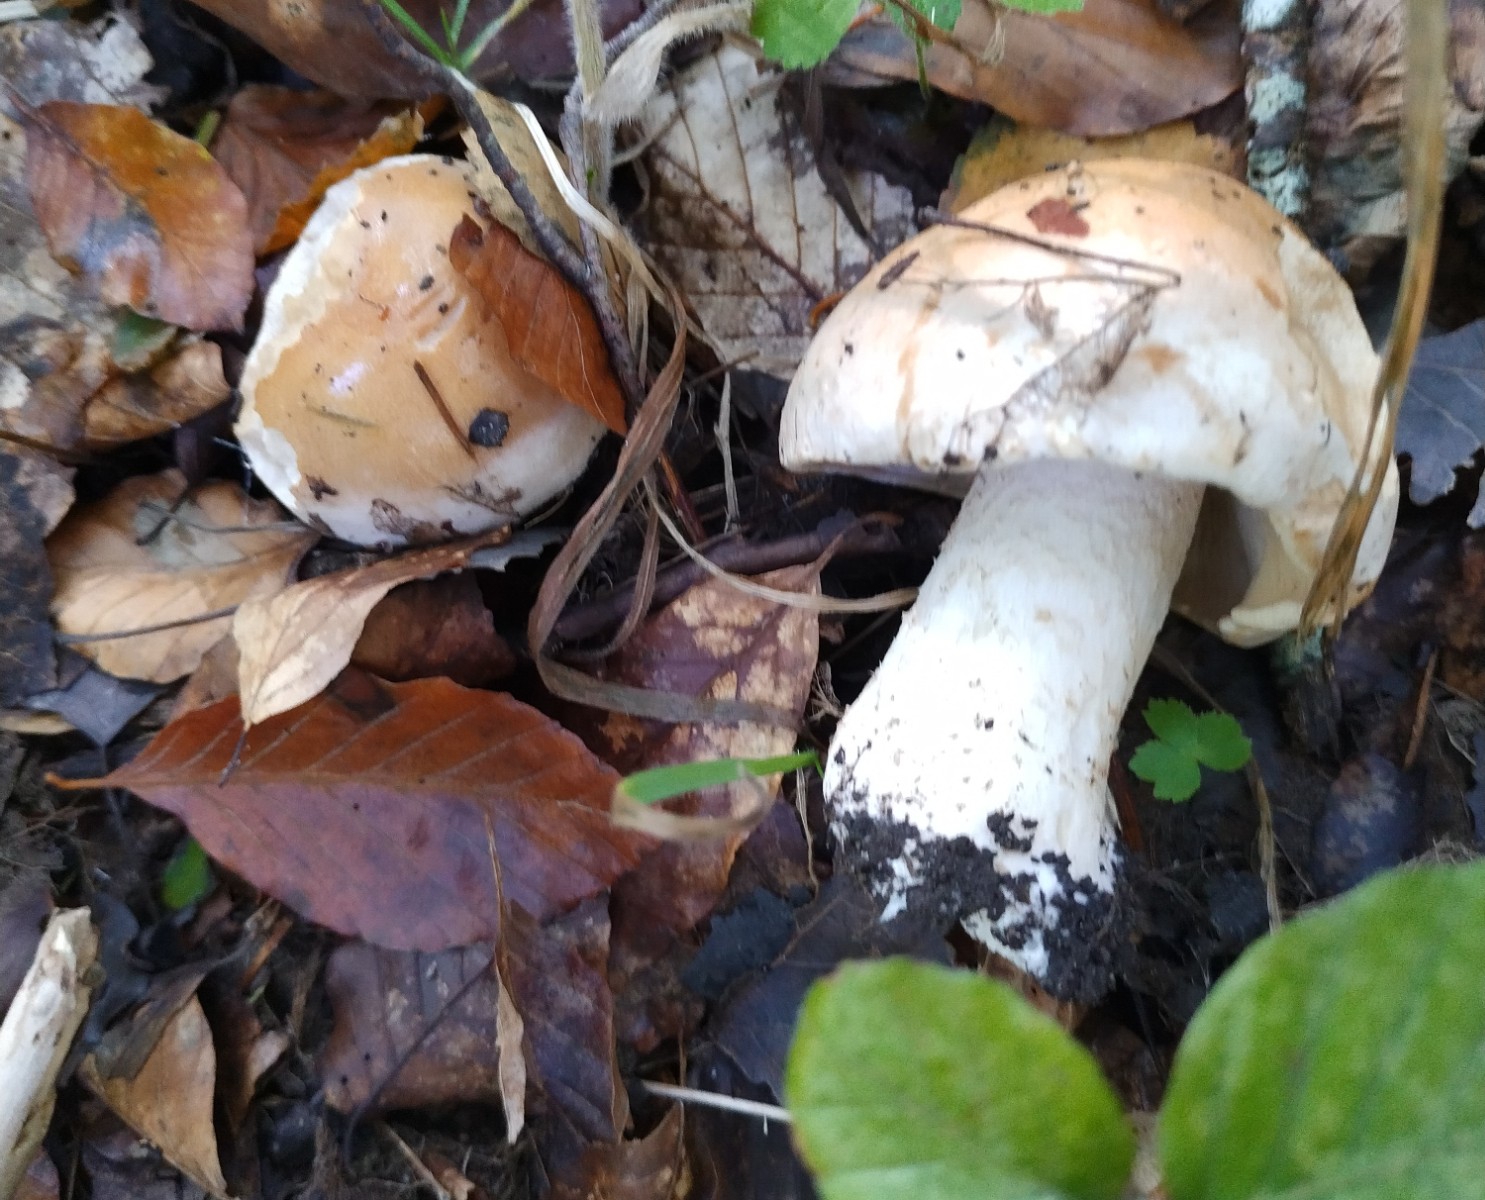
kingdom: Fungi
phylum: Basidiomycota
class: Agaricomycetes
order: Agaricales
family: Hymenogastraceae
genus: Hebeloma
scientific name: Hebeloma
